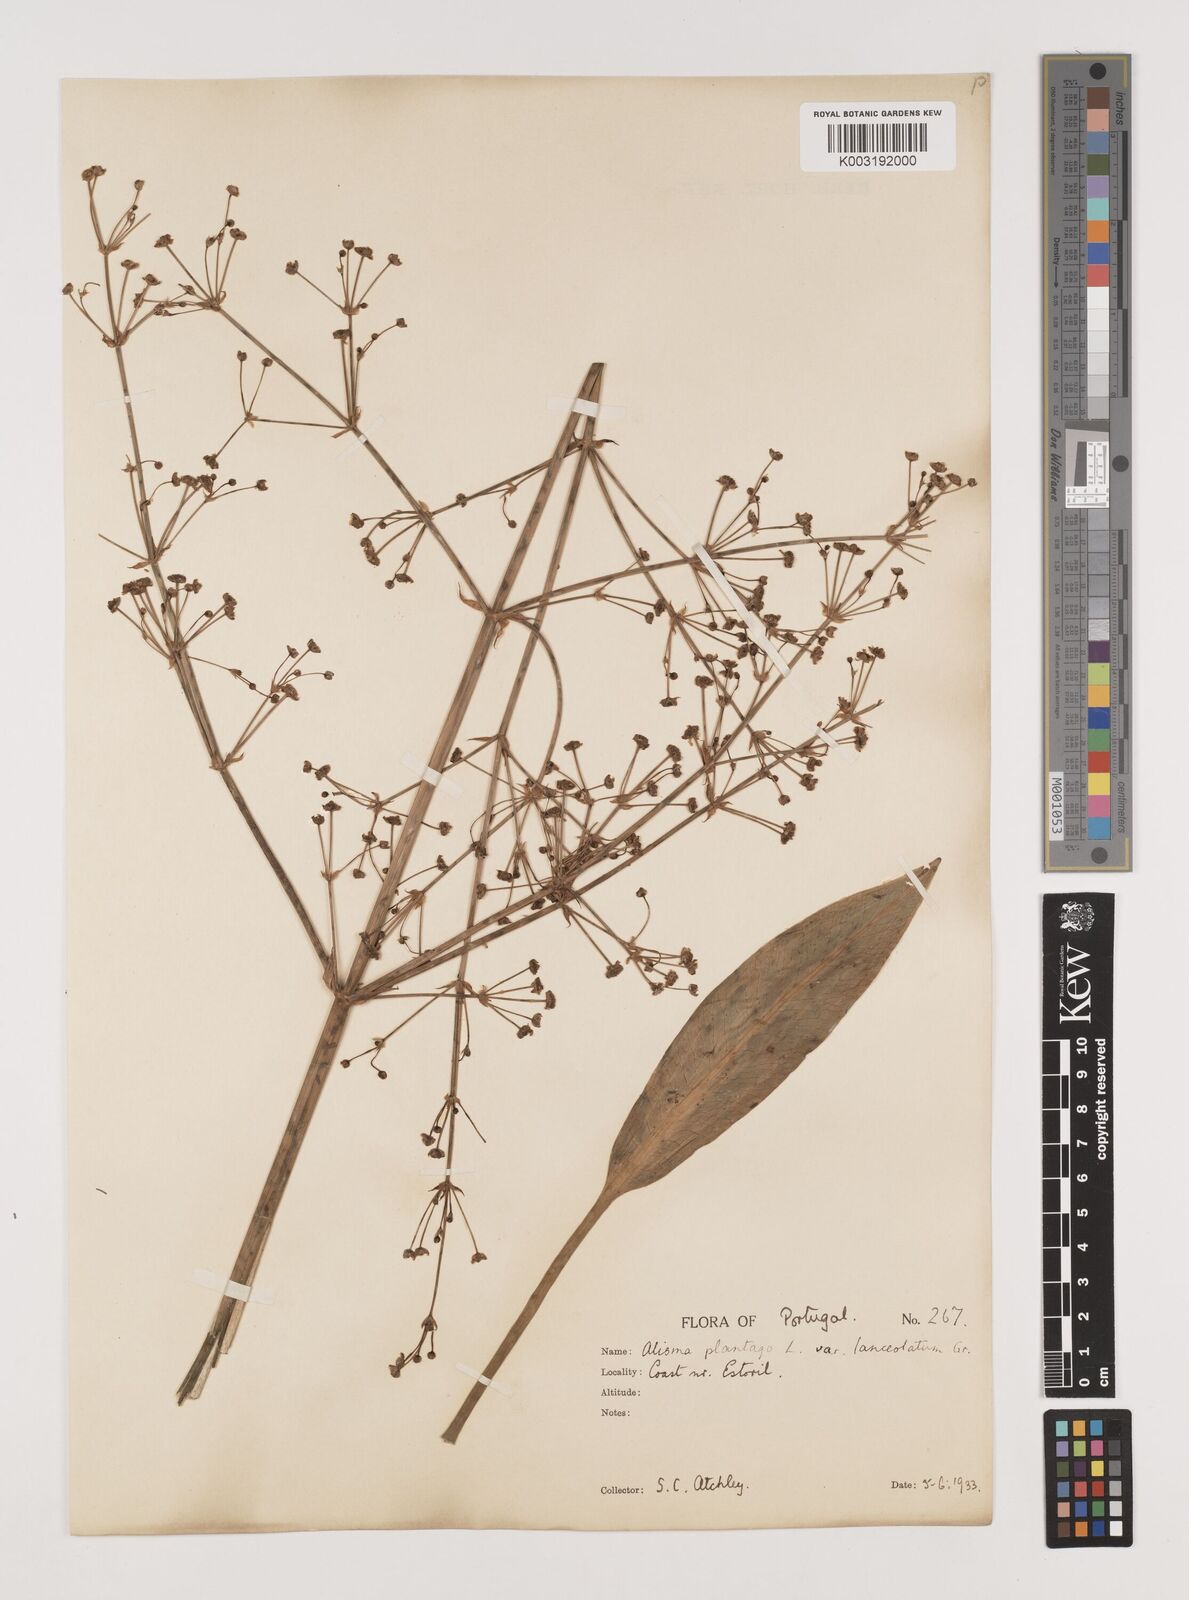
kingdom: Plantae
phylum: Tracheophyta
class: Liliopsida
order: Alismatales
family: Alismataceae
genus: Alisma
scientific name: Alisma lanceolatum
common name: Narrow-leaved water-plantain
